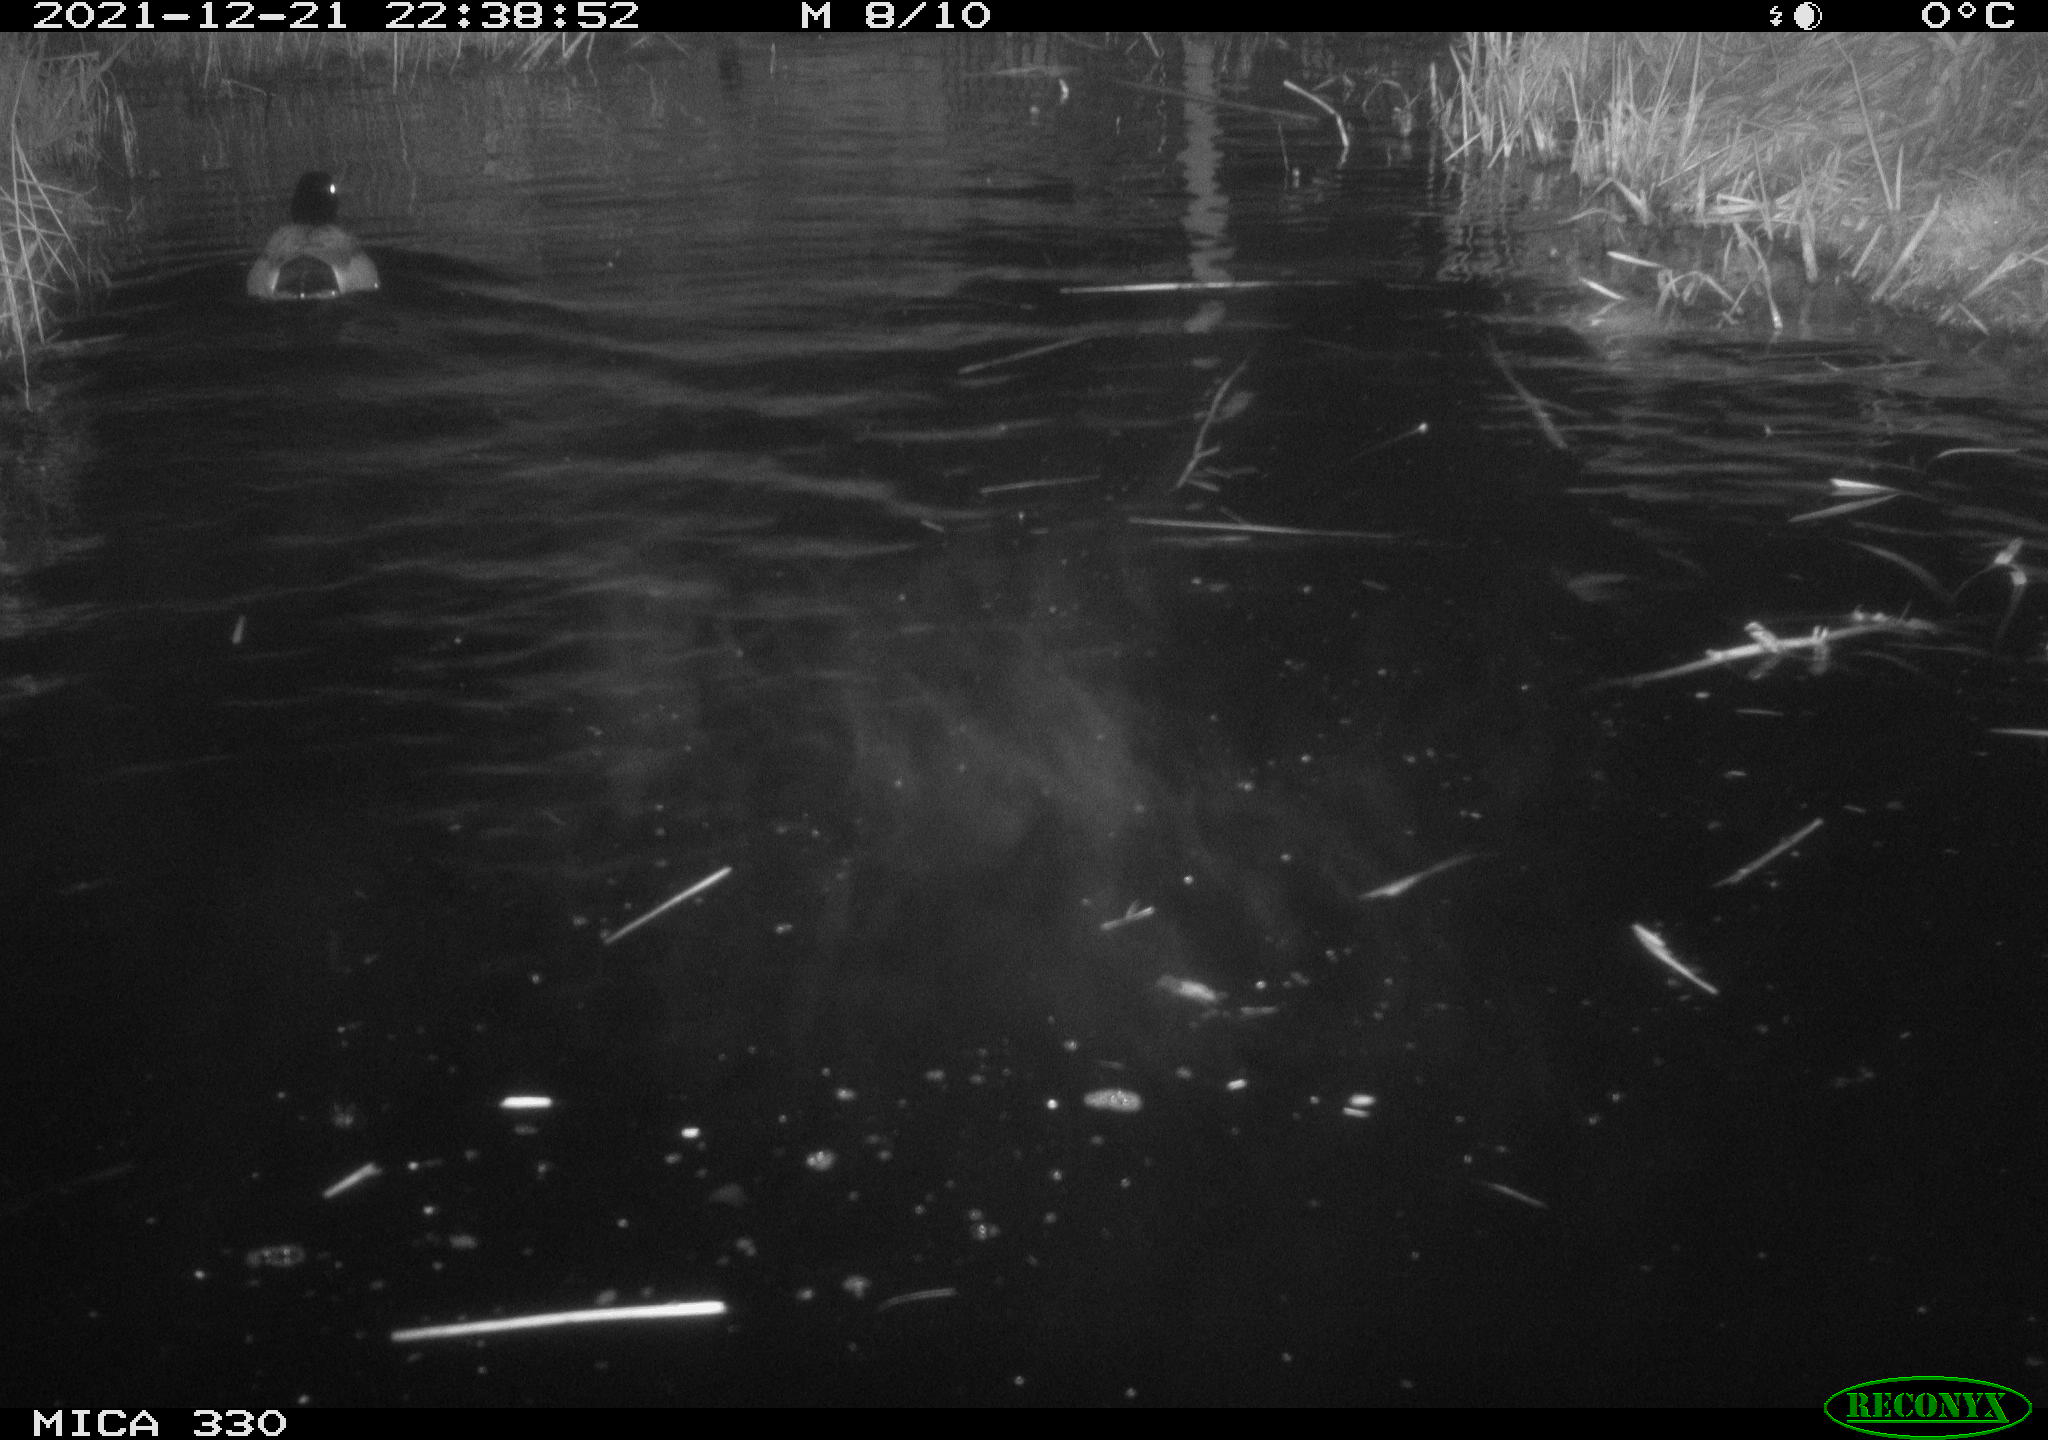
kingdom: Animalia
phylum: Chordata
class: Aves
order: Anseriformes
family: Anatidae
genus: Anas
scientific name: Anas platyrhynchos
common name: Mallard
